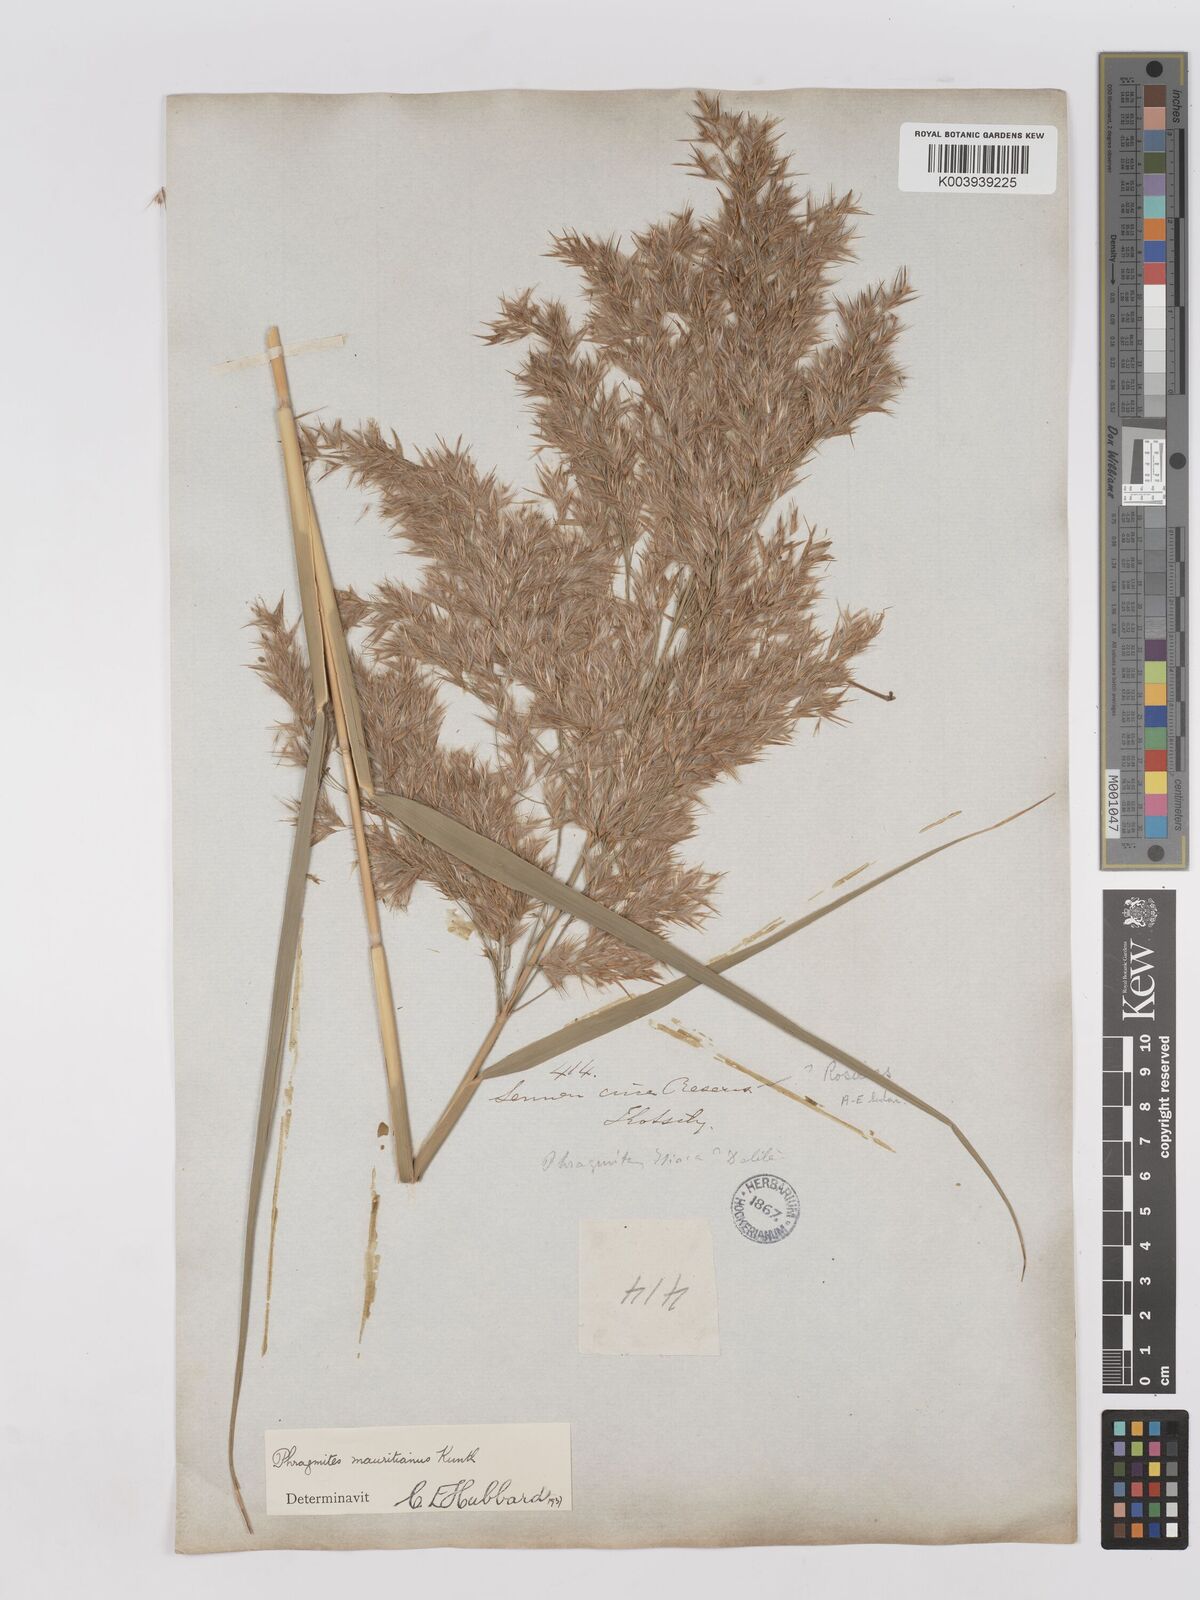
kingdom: Plantae
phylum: Tracheophyta
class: Liliopsida
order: Poales
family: Poaceae
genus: Phragmites
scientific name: Phragmites mauritianus
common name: Reed grass
